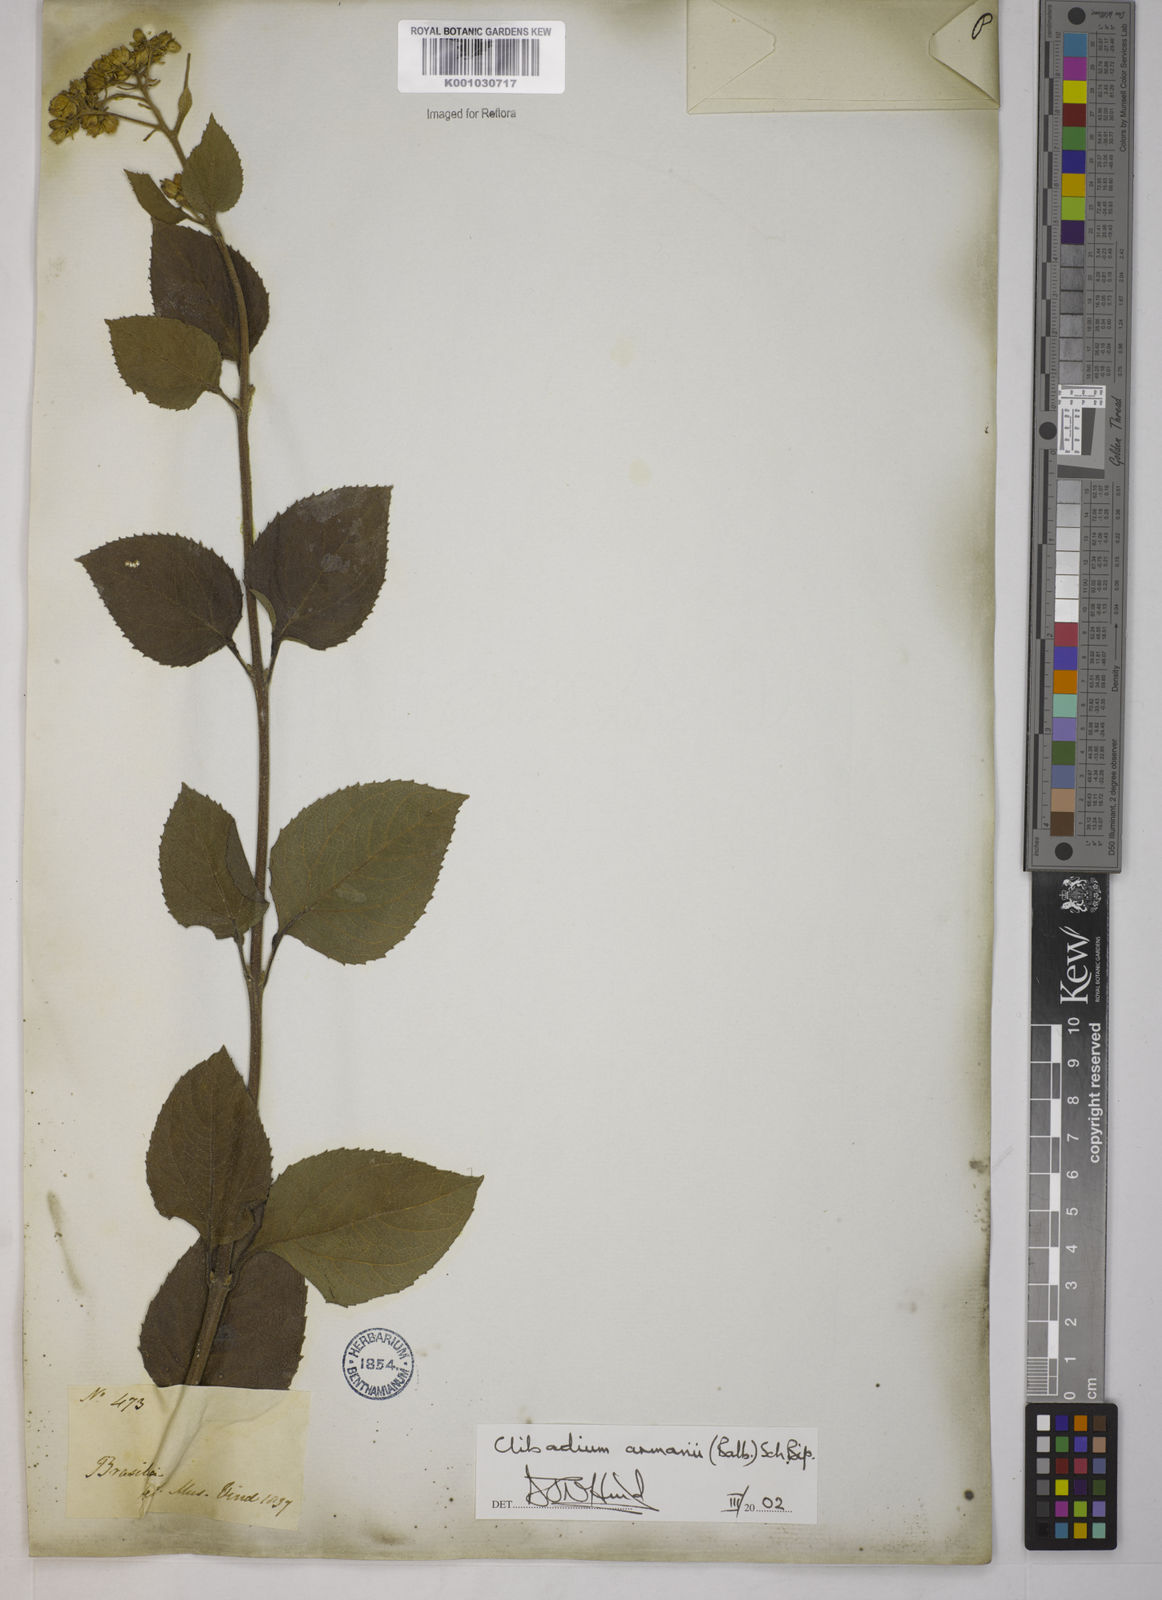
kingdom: Plantae
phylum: Tracheophyta
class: Magnoliopsida
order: Asterales
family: Asteraceae
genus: Clibadium
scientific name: Clibadium armanii
